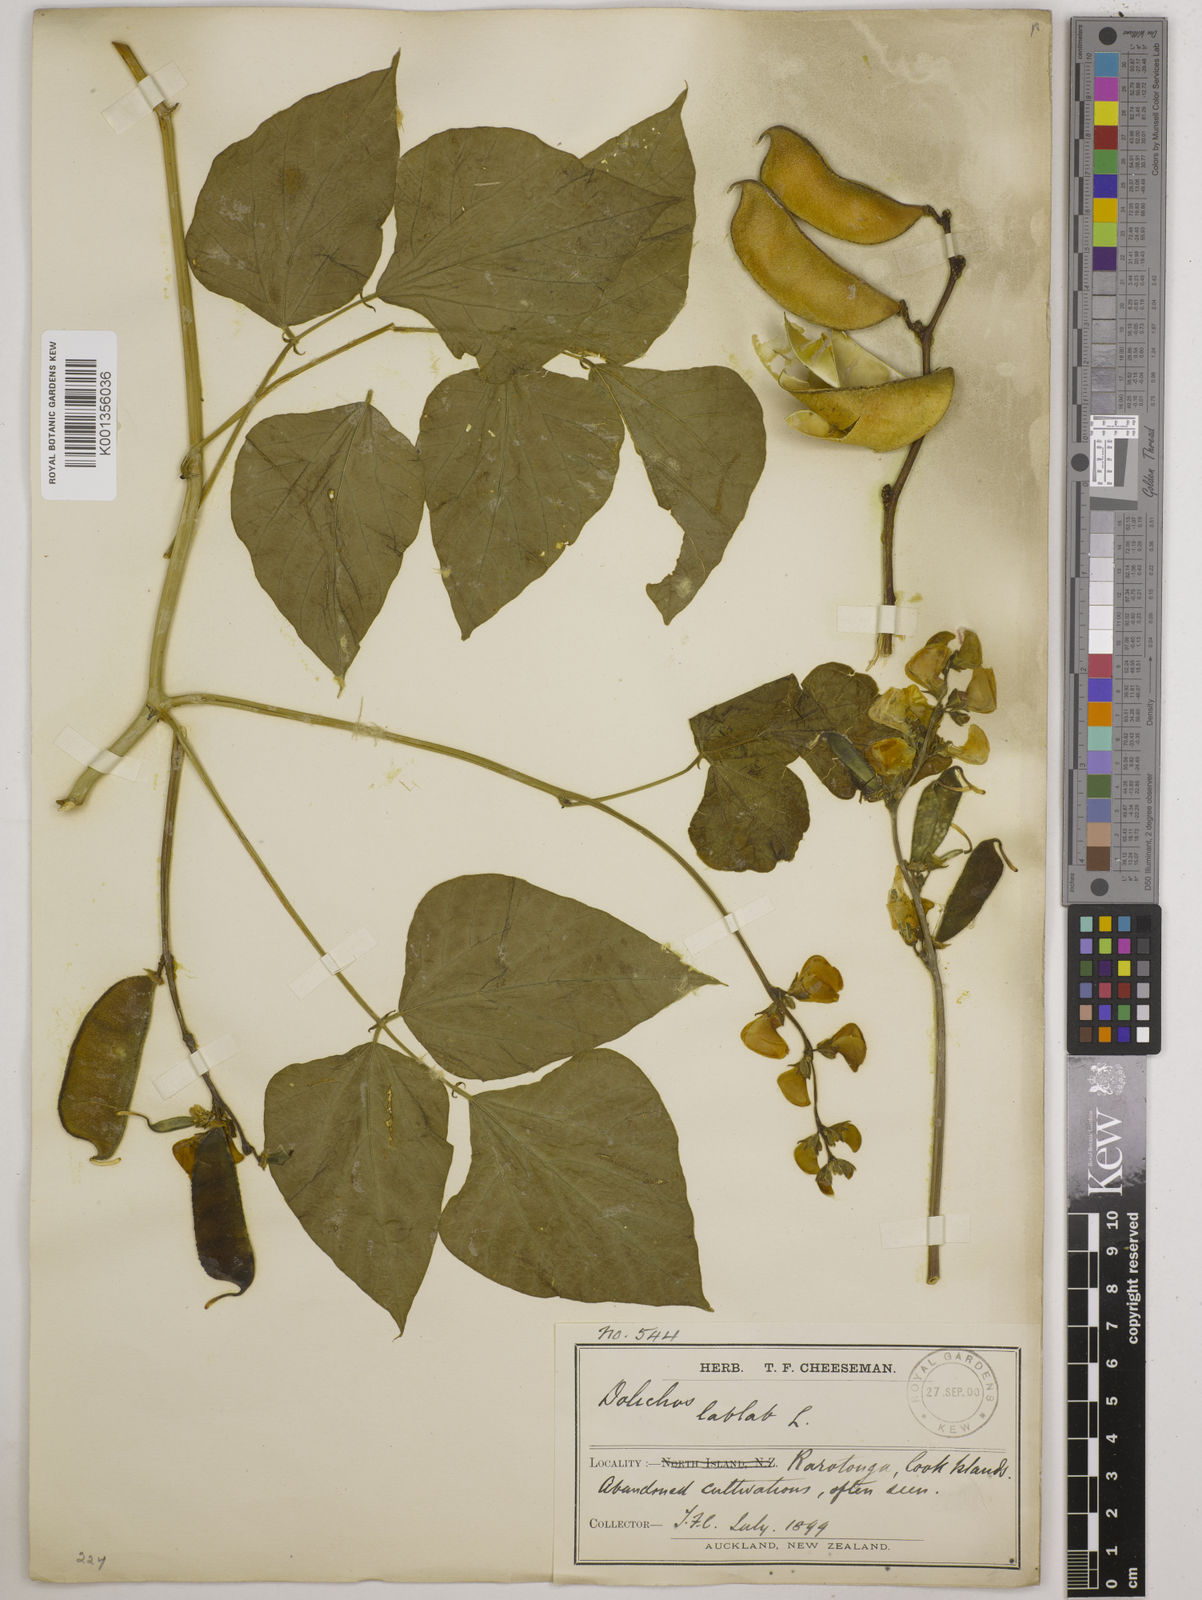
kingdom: Plantae
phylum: Tracheophyta
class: Magnoliopsida
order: Fabales
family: Fabaceae
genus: Lablab
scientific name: Lablab purpureus
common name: Lablab-bean
